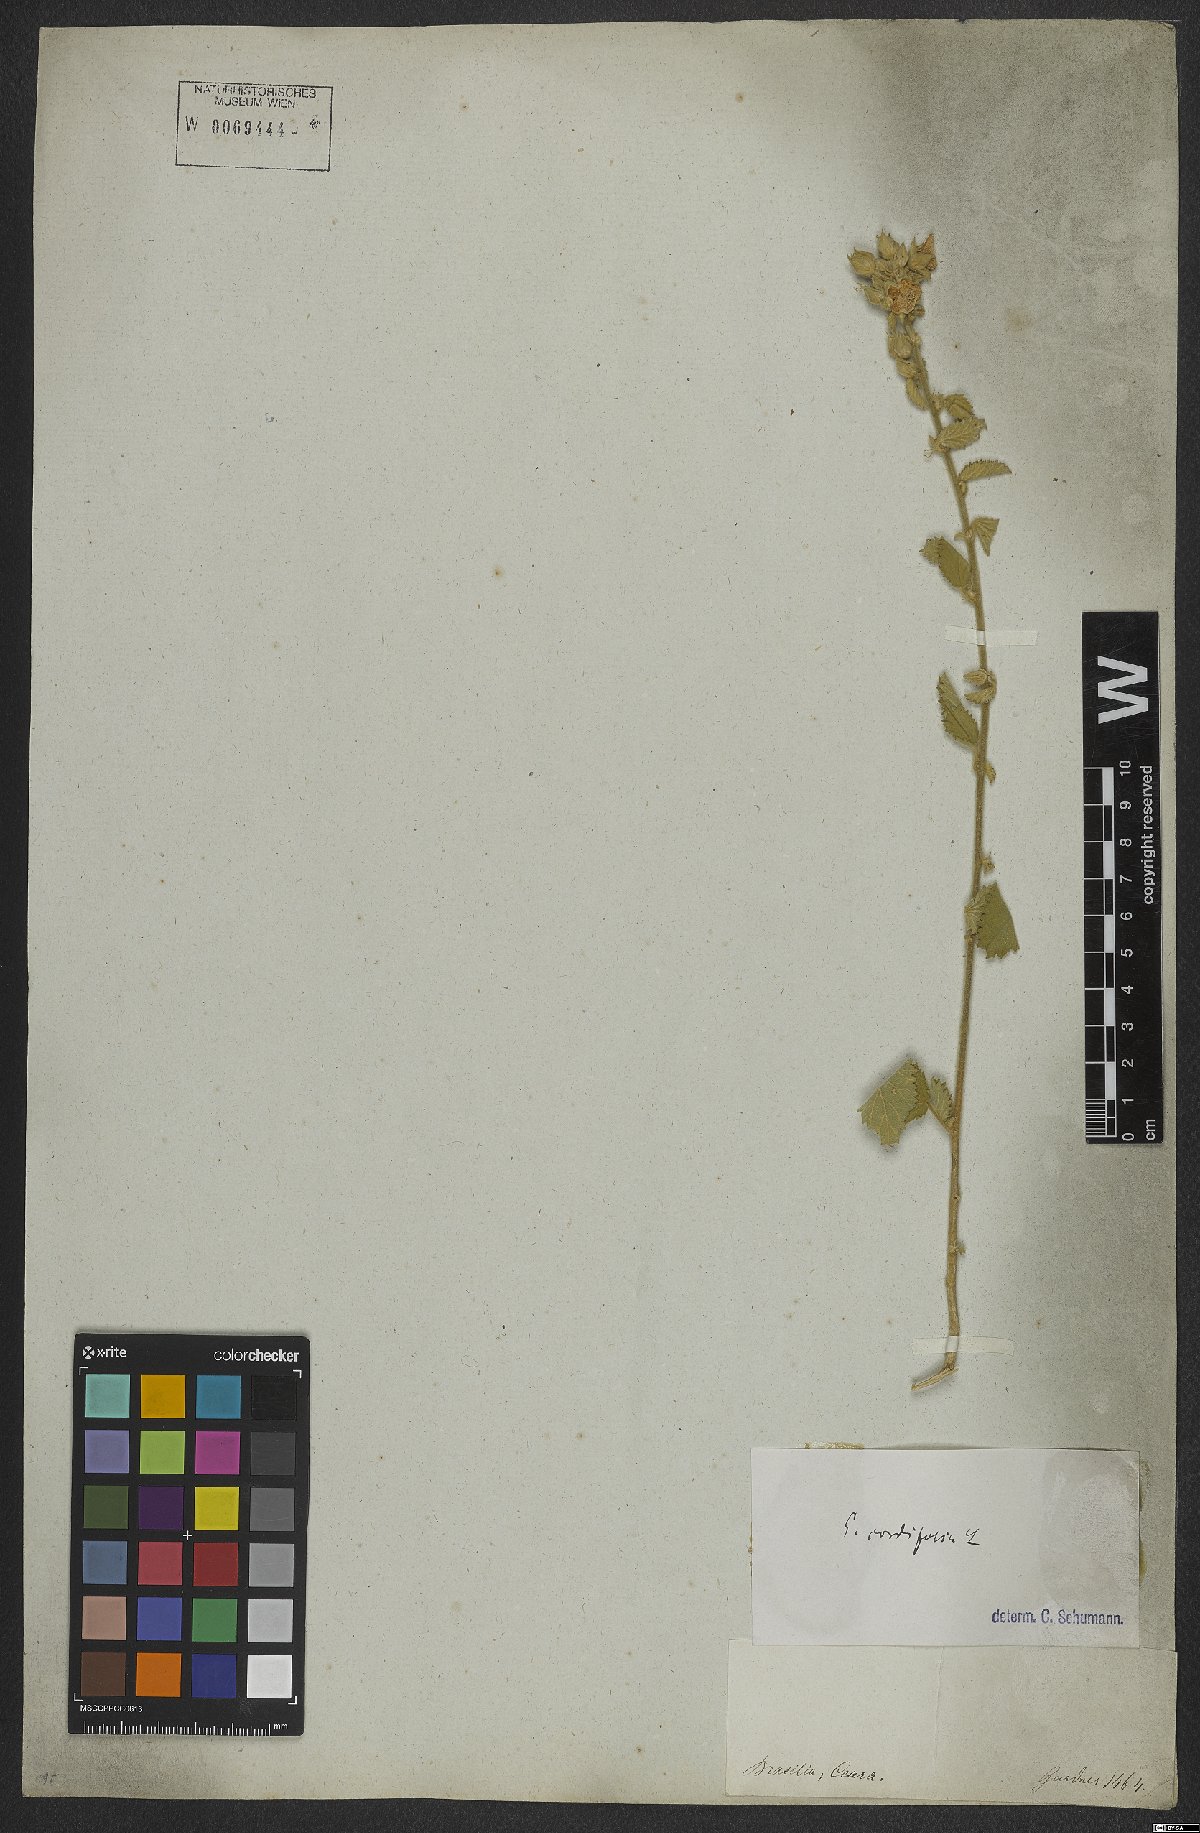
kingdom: Plantae
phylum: Tracheophyta
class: Magnoliopsida
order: Malvales
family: Malvaceae
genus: Sida
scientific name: Sida cordifolia
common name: Ilima
